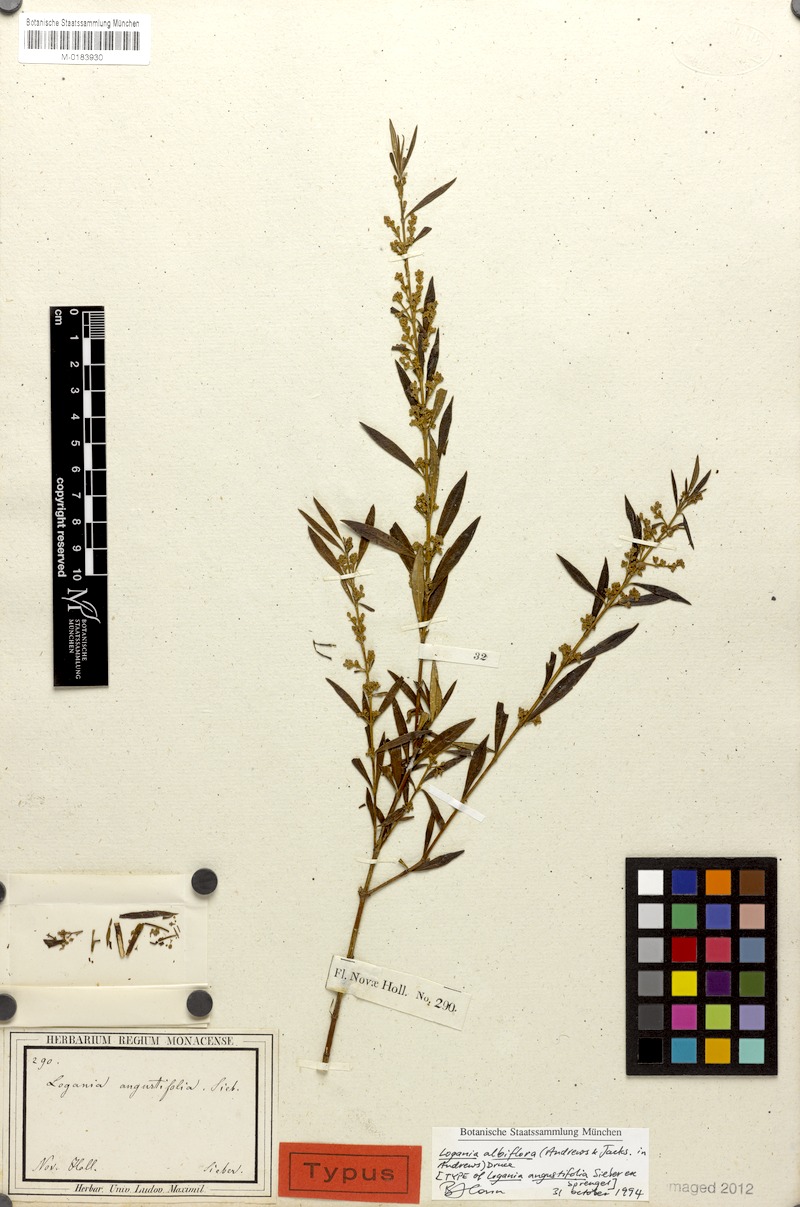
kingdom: Plantae
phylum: Tracheophyta
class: Magnoliopsida
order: Gentianales
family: Loganiaceae
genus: Logania
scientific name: Logania albiflora
